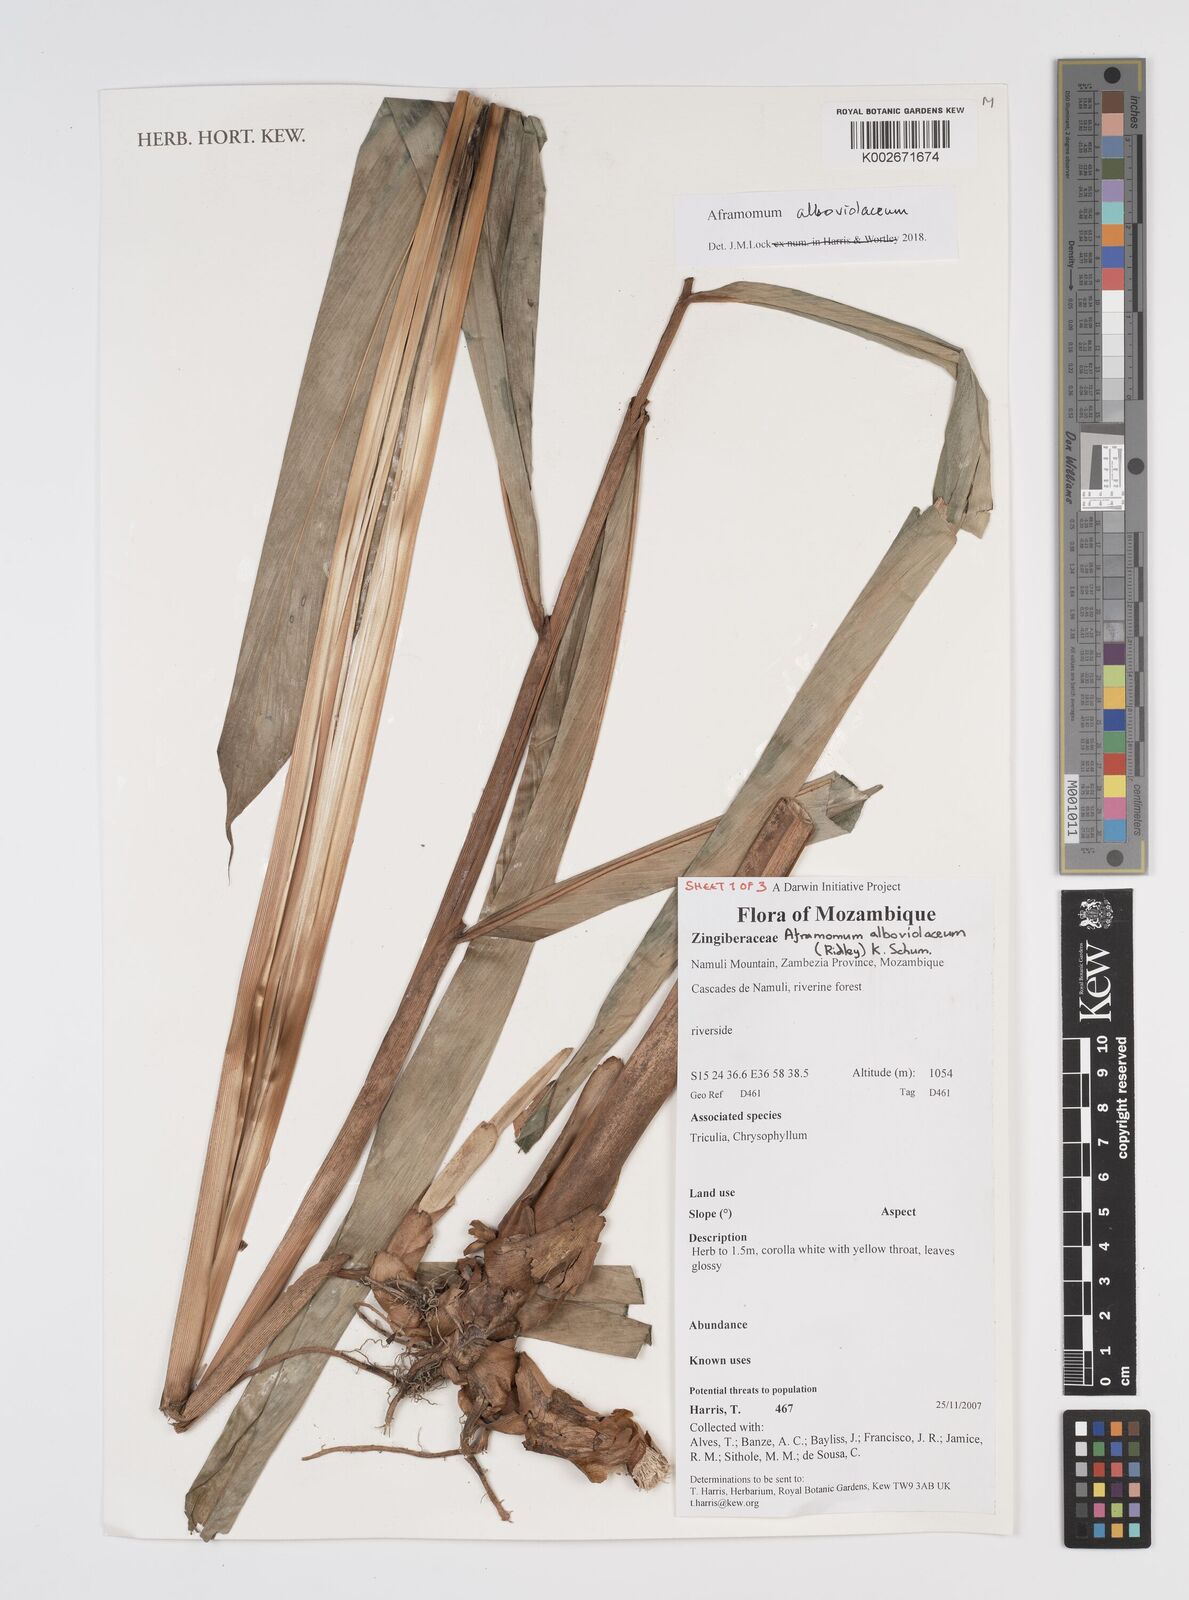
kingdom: Plantae
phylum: Tracheophyta
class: Liliopsida
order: Zingiberales
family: Zingiberaceae
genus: Aframomum
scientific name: Aframomum alboviolaceum
